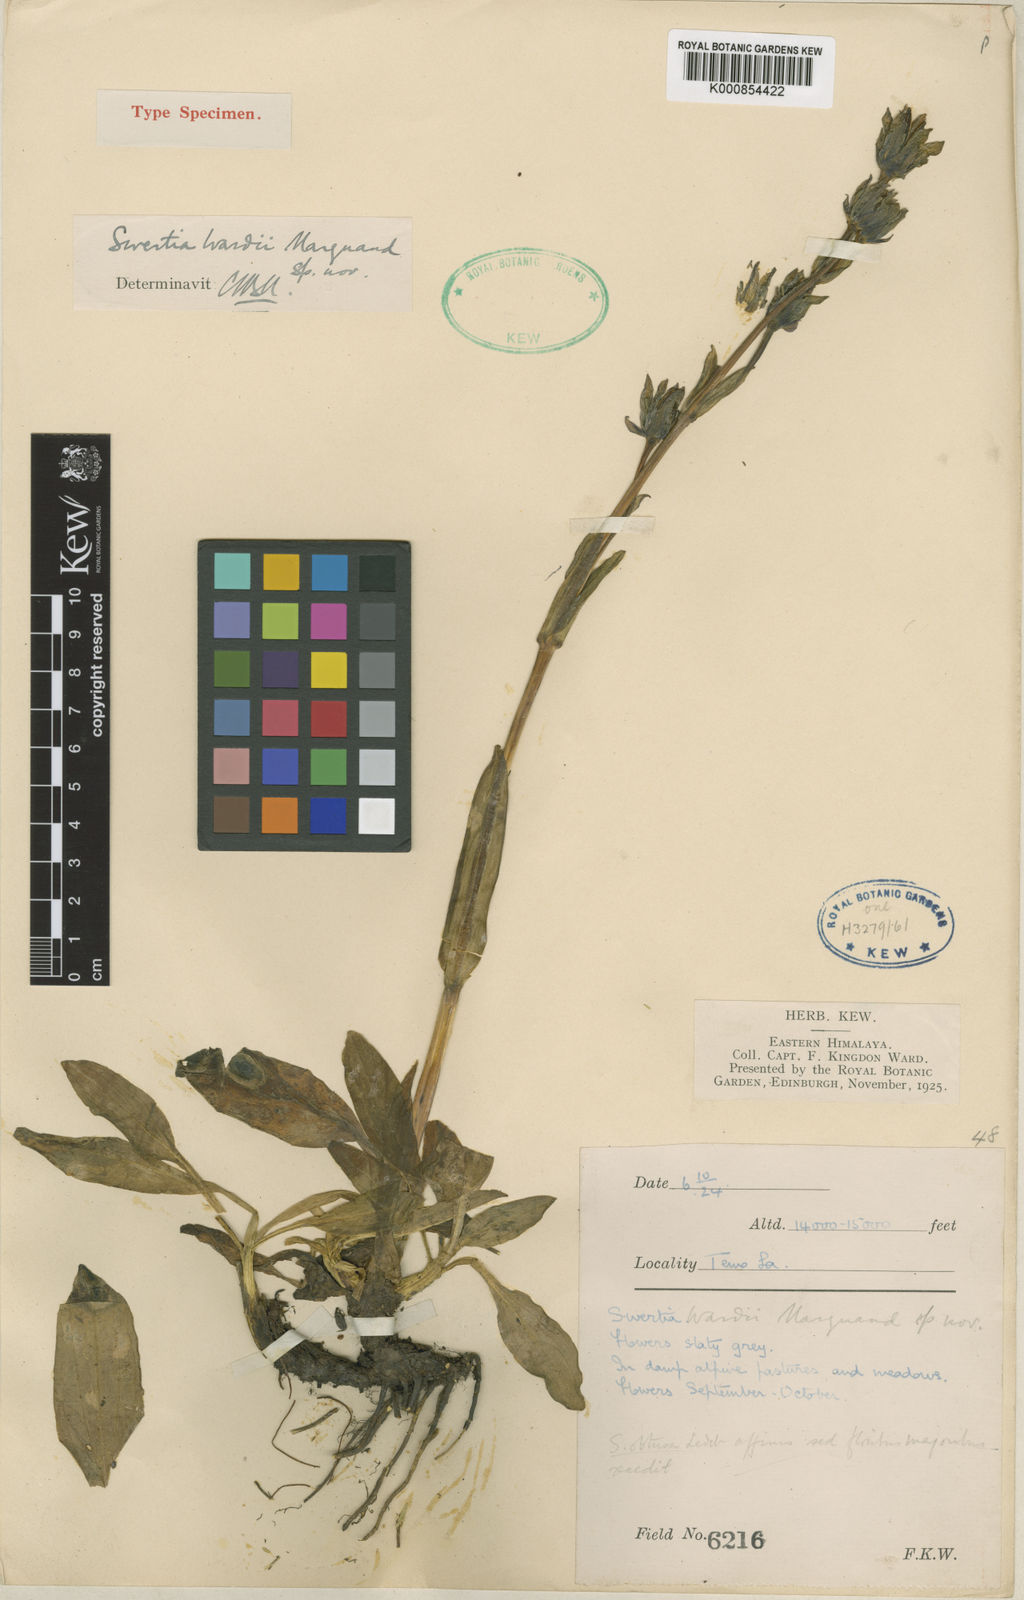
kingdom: Plantae
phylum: Tracheophyta
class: Magnoliopsida
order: Gentianales
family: Gentianaceae
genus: Swertia
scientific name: Swertia wardii
